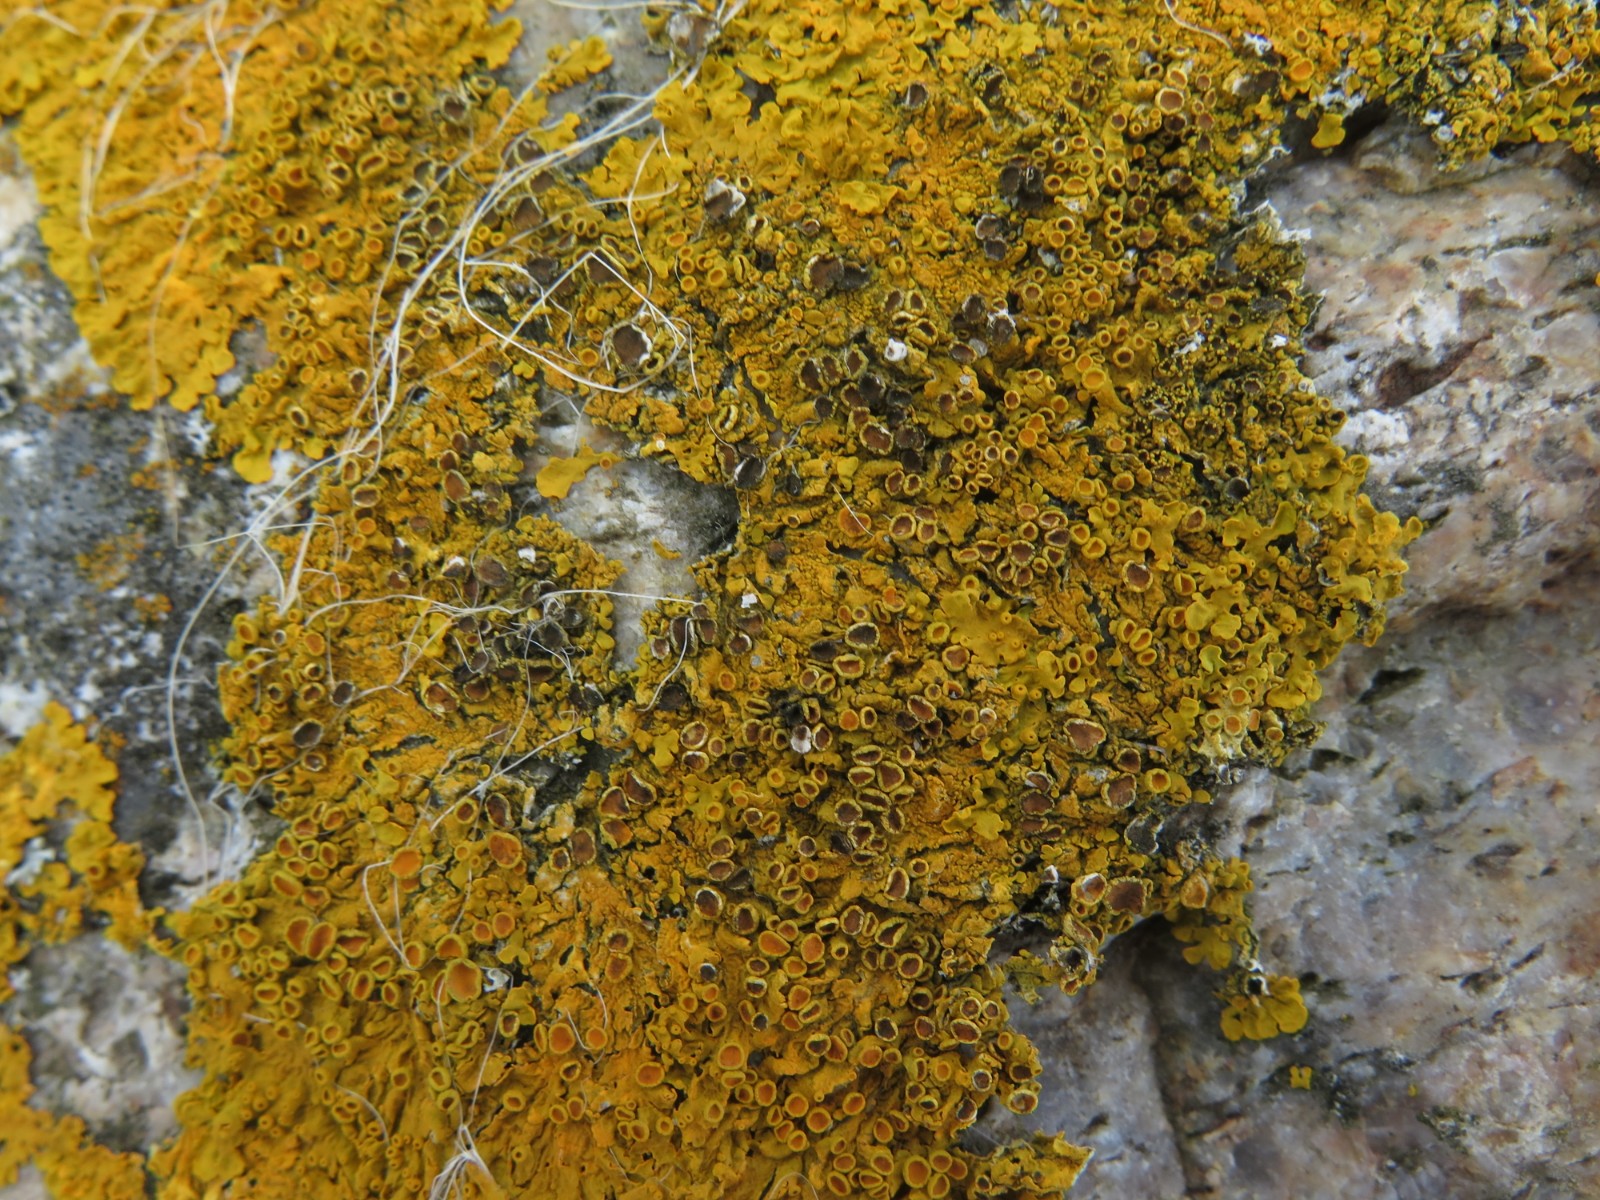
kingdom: Fungi
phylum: Ascomycota
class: Dothideomycetes
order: Mycosphaerellales
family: Teratosphaeriaceae
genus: Xanthoriicola
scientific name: Xanthoriicola physciae
